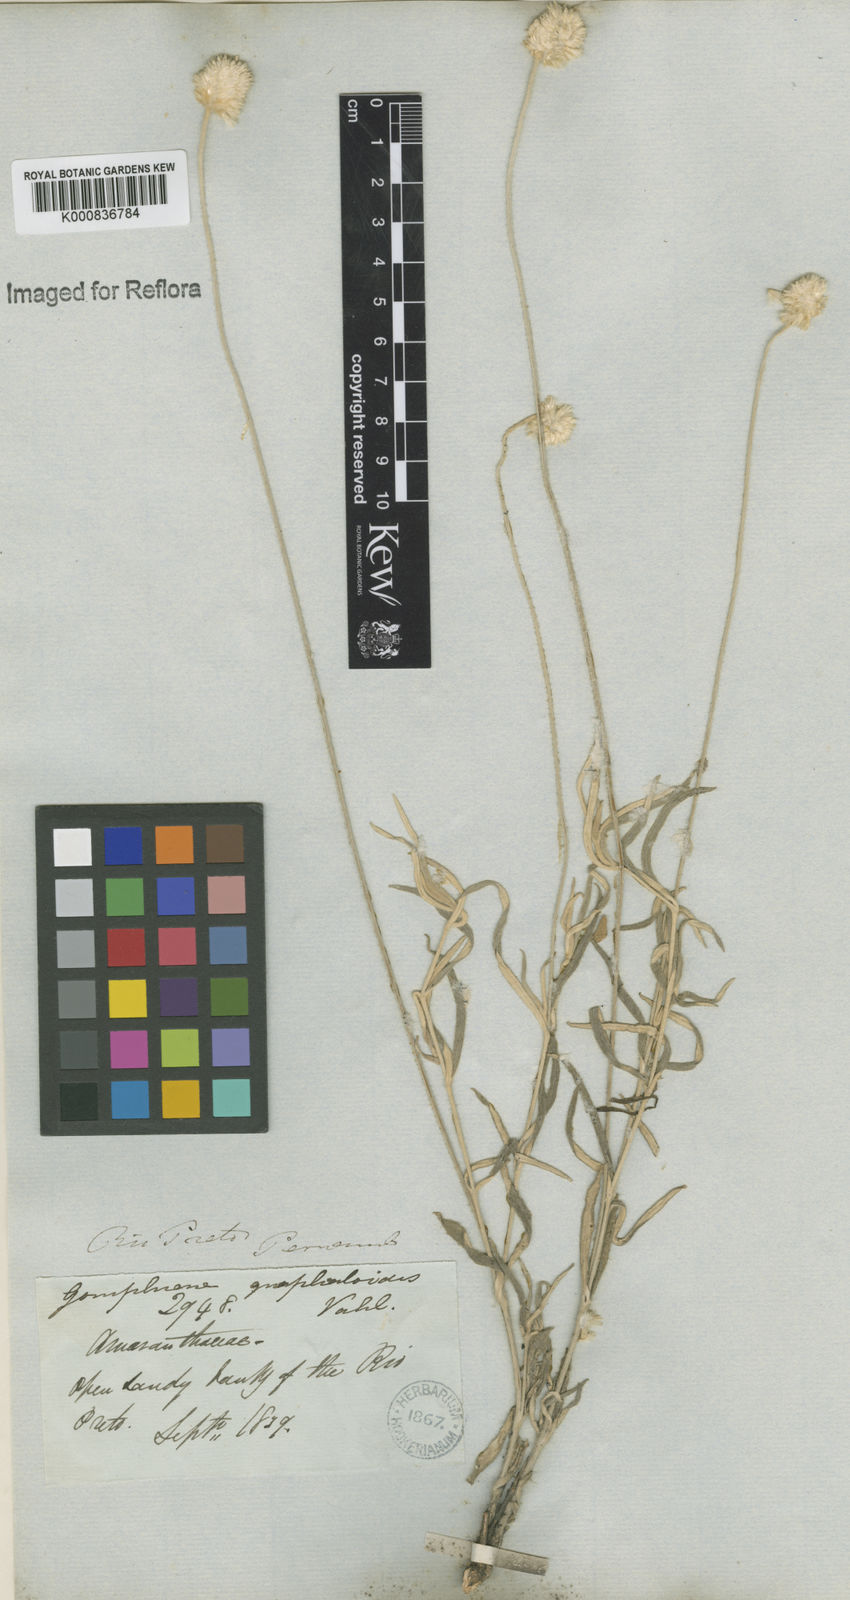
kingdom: Plantae
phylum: Tracheophyta
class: Magnoliopsida
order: Caryophyllales
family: Amaranthaceae
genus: Pfaffia
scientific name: Pfaffia
